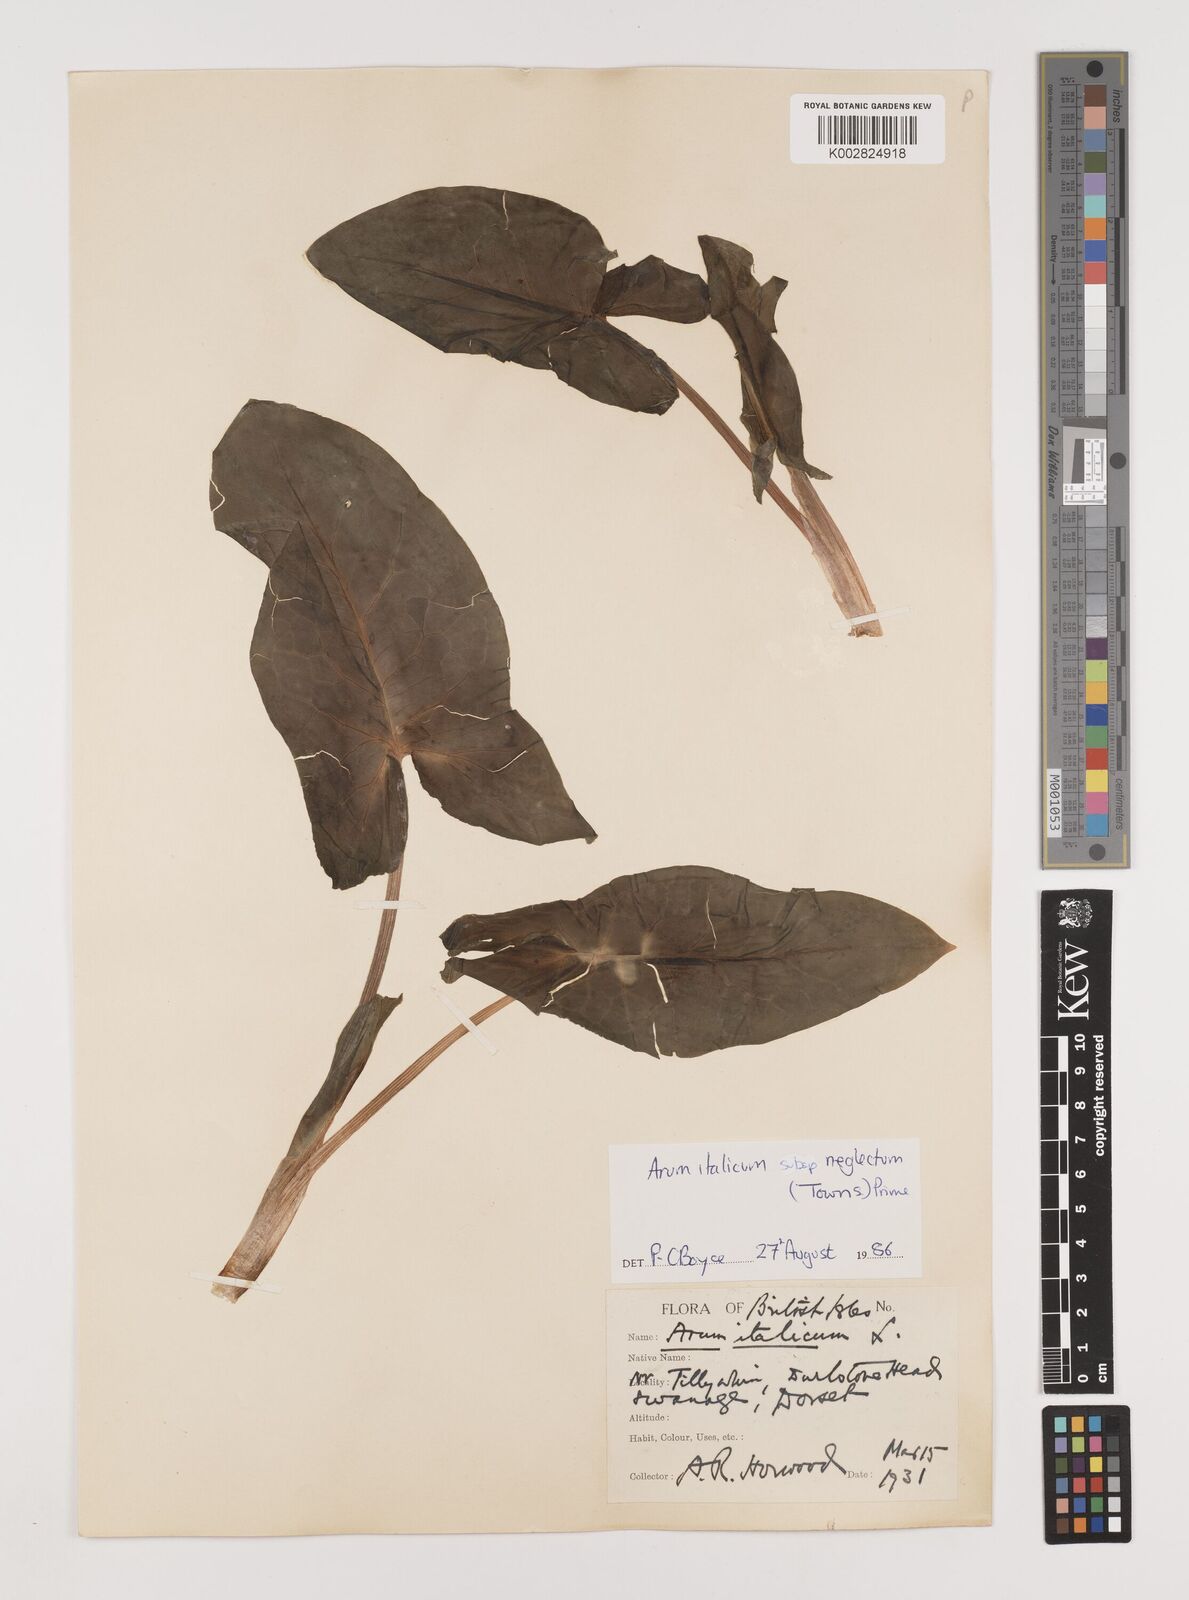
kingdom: Plantae
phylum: Tracheophyta
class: Liliopsida
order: Alismatales
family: Araceae
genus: Arum
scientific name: Arum italicum
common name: Italian lords-and-ladies
